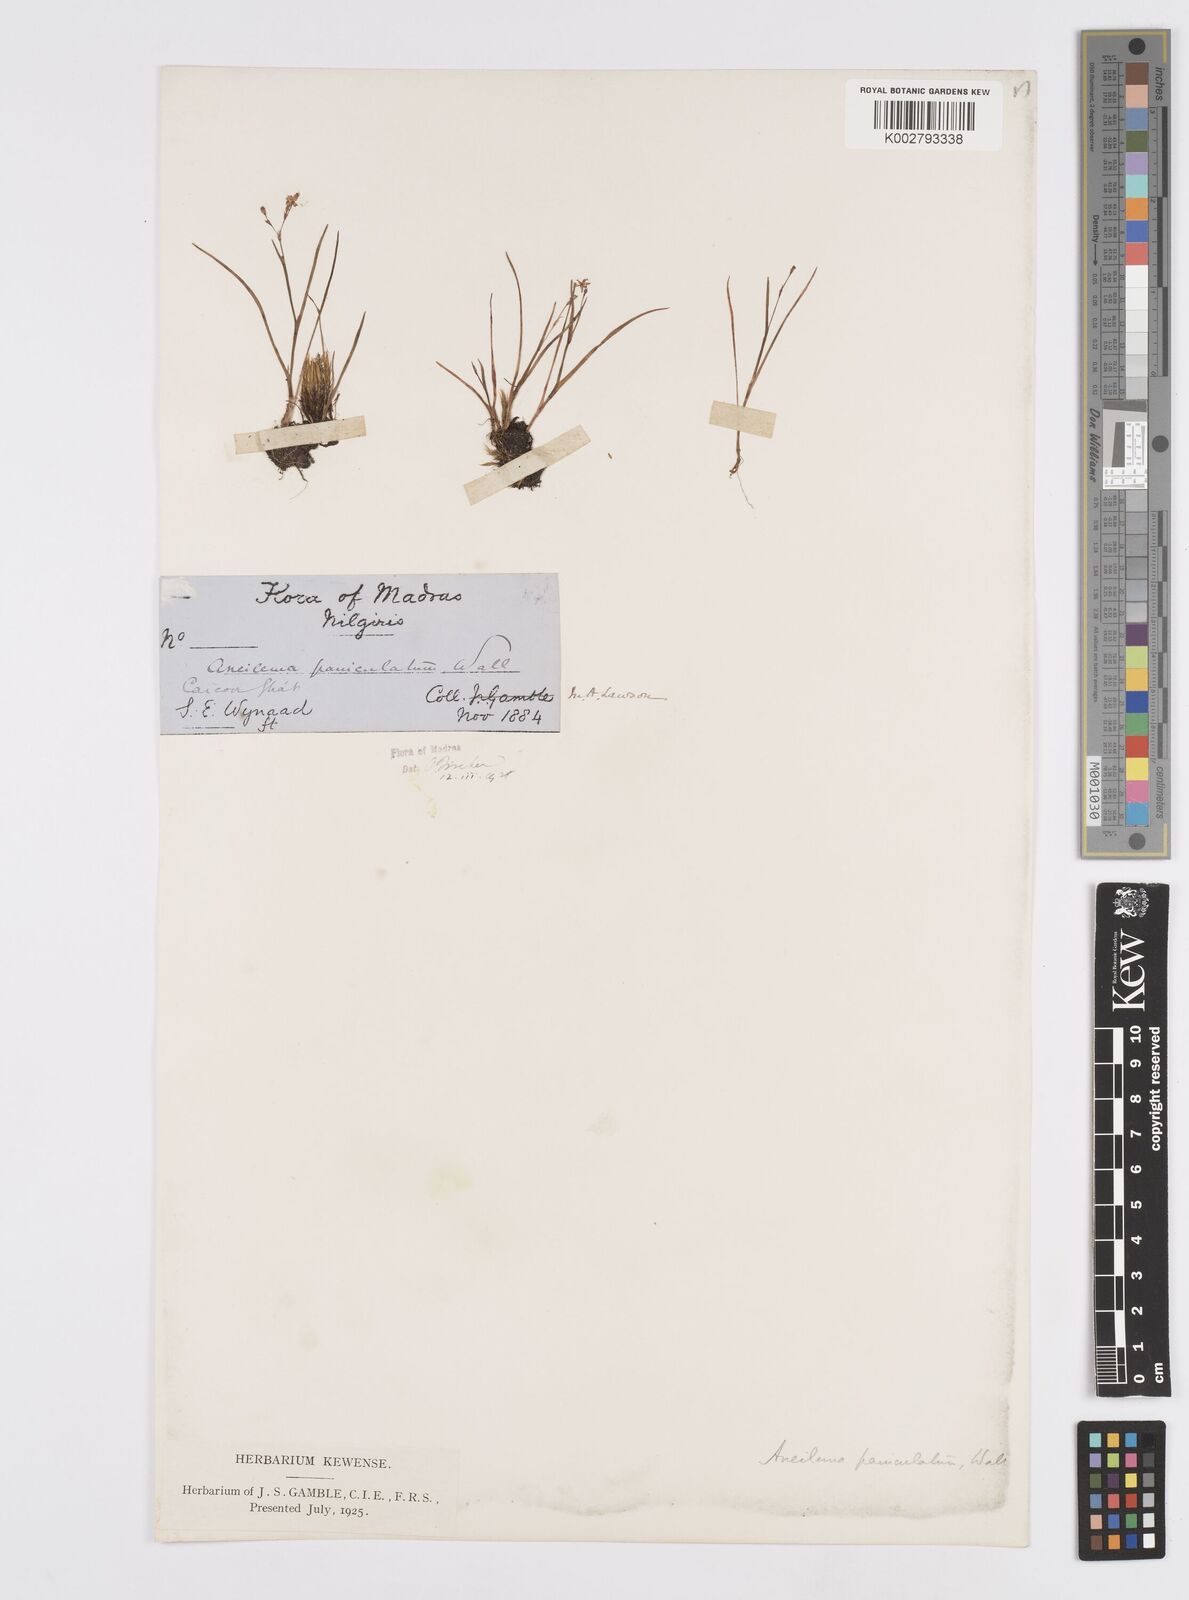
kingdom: Plantae
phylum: Tracheophyta
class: Liliopsida
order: Commelinales
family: Commelinaceae
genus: Murdannia
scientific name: Murdannia semiteres
